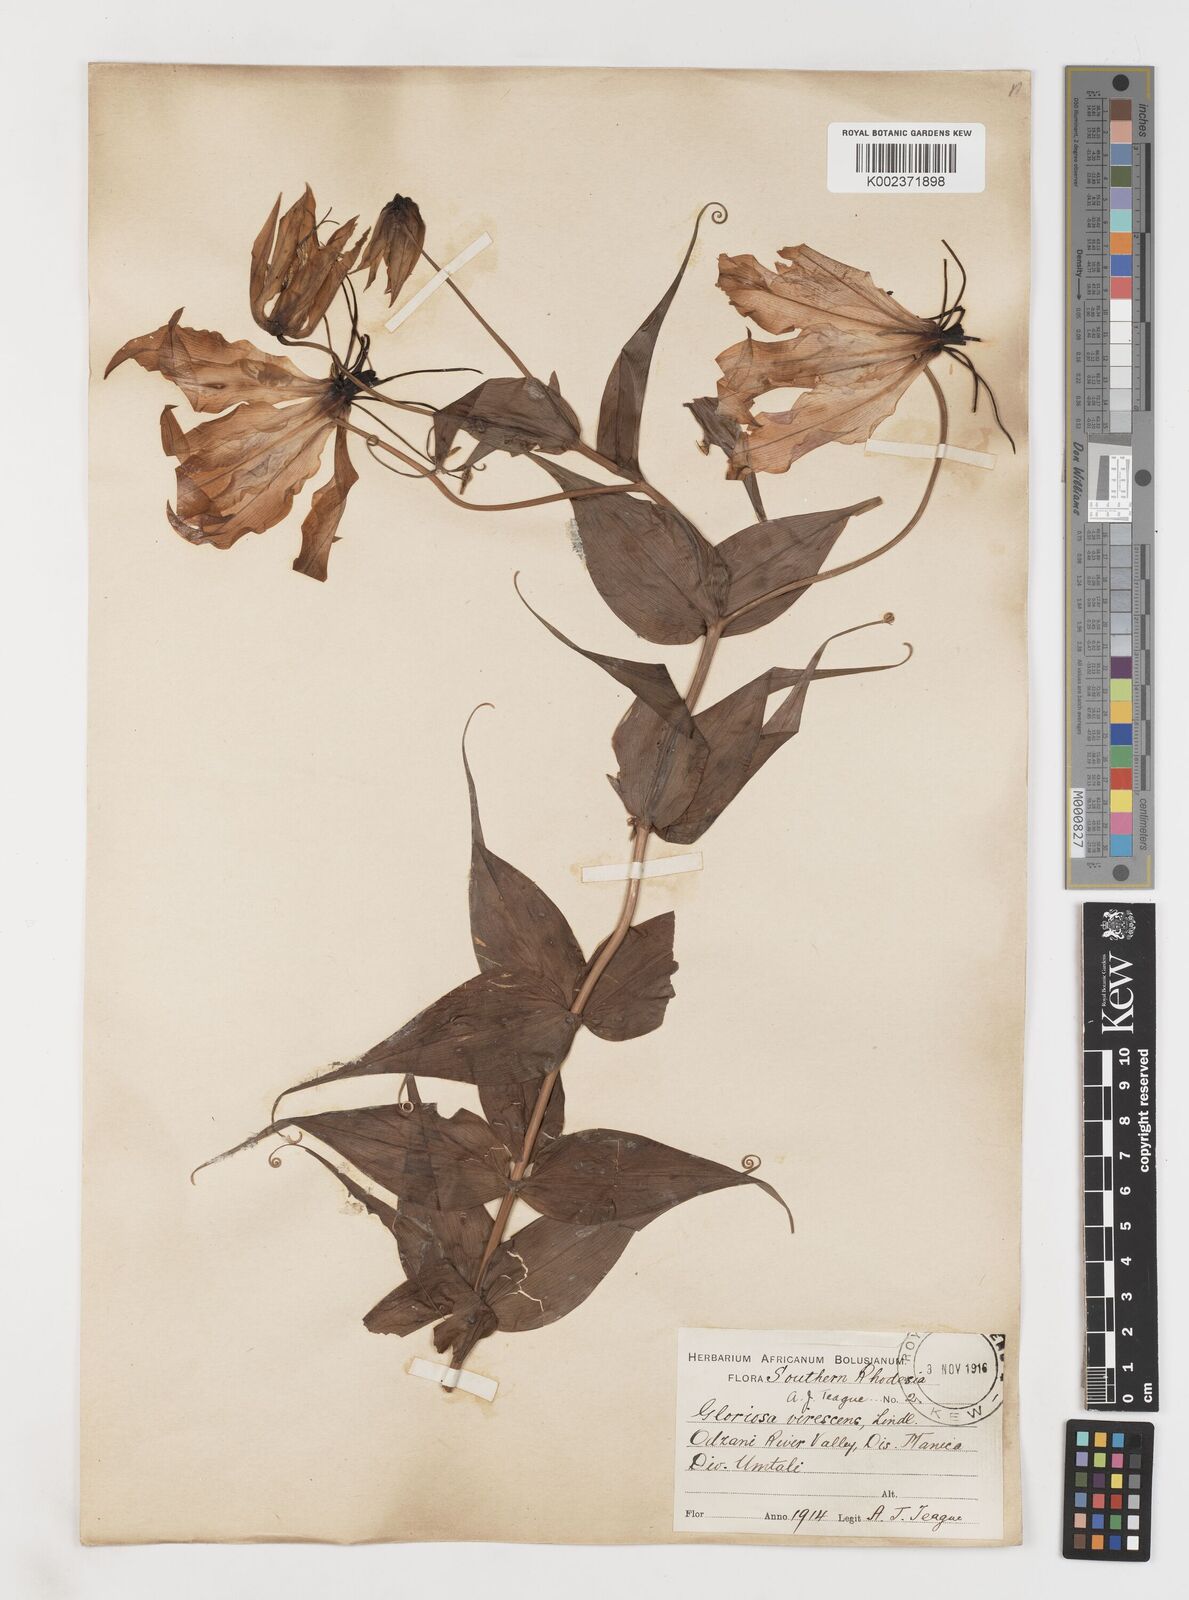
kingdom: Plantae
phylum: Tracheophyta
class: Liliopsida
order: Liliales
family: Colchicaceae
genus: Gloriosa
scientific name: Gloriosa simplex
